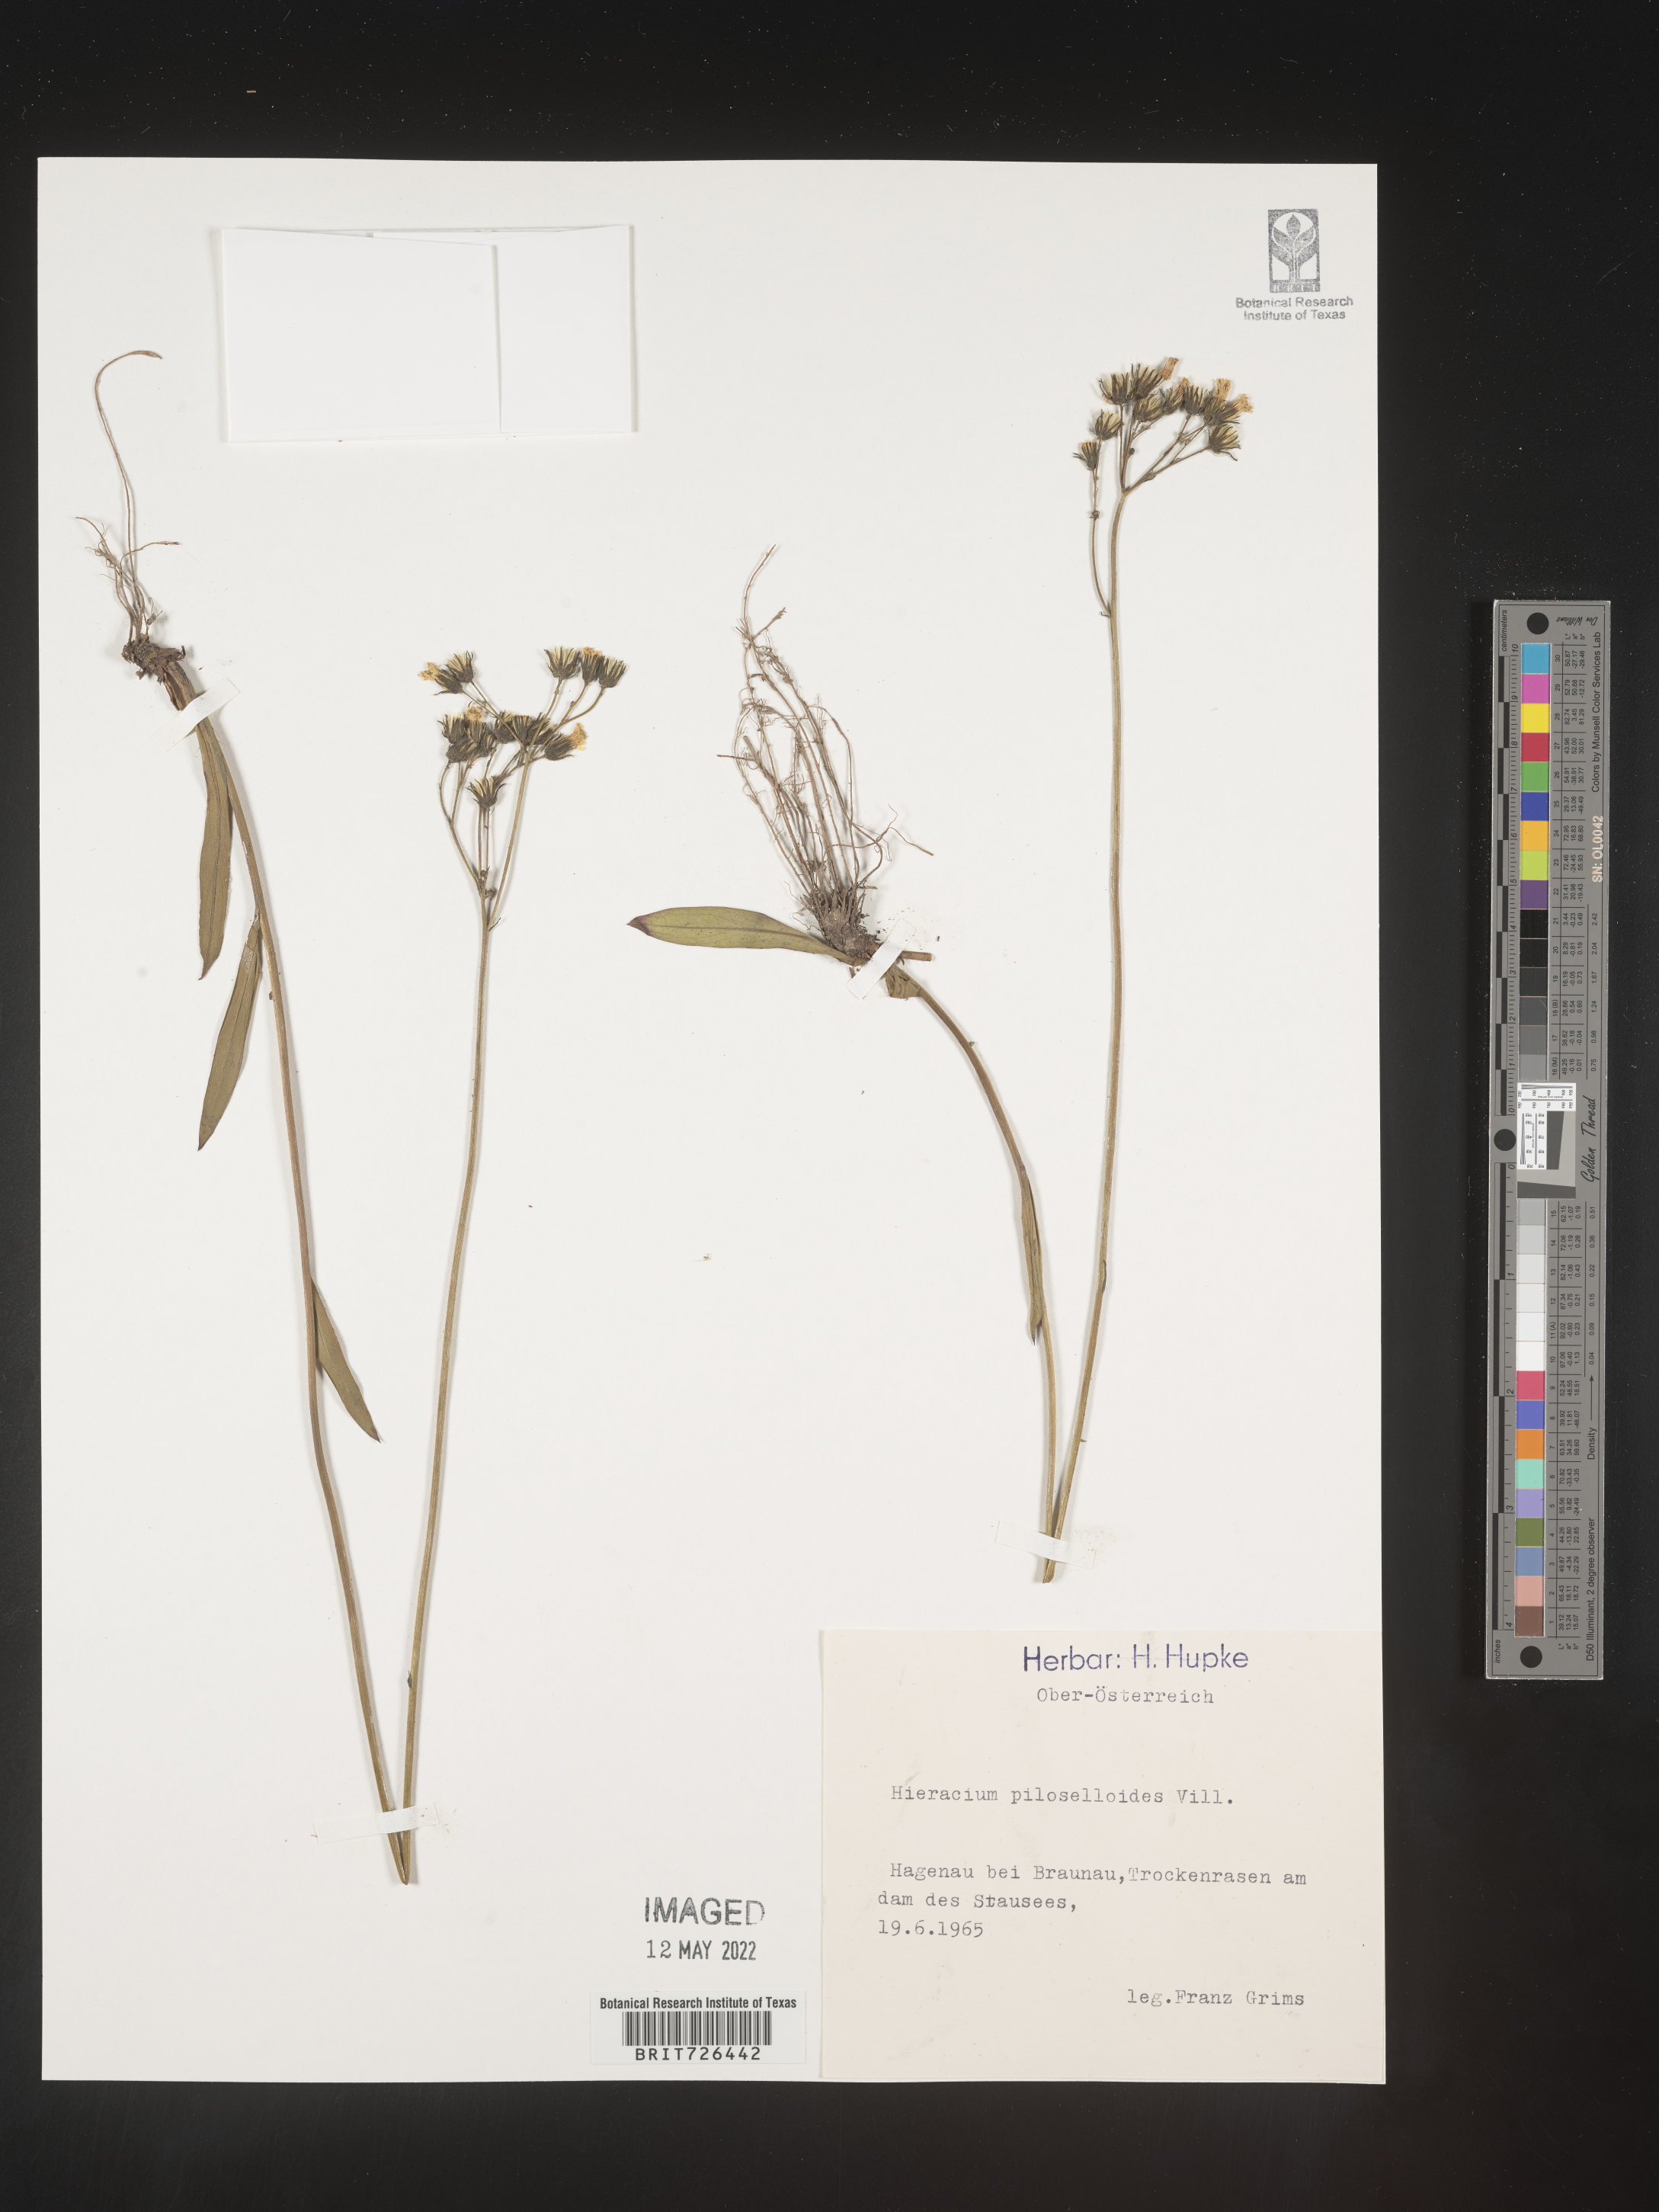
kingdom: Plantae
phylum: Tracheophyta
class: Magnoliopsida
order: Asterales
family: Asteraceae
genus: Hieracium
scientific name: Hieracium
